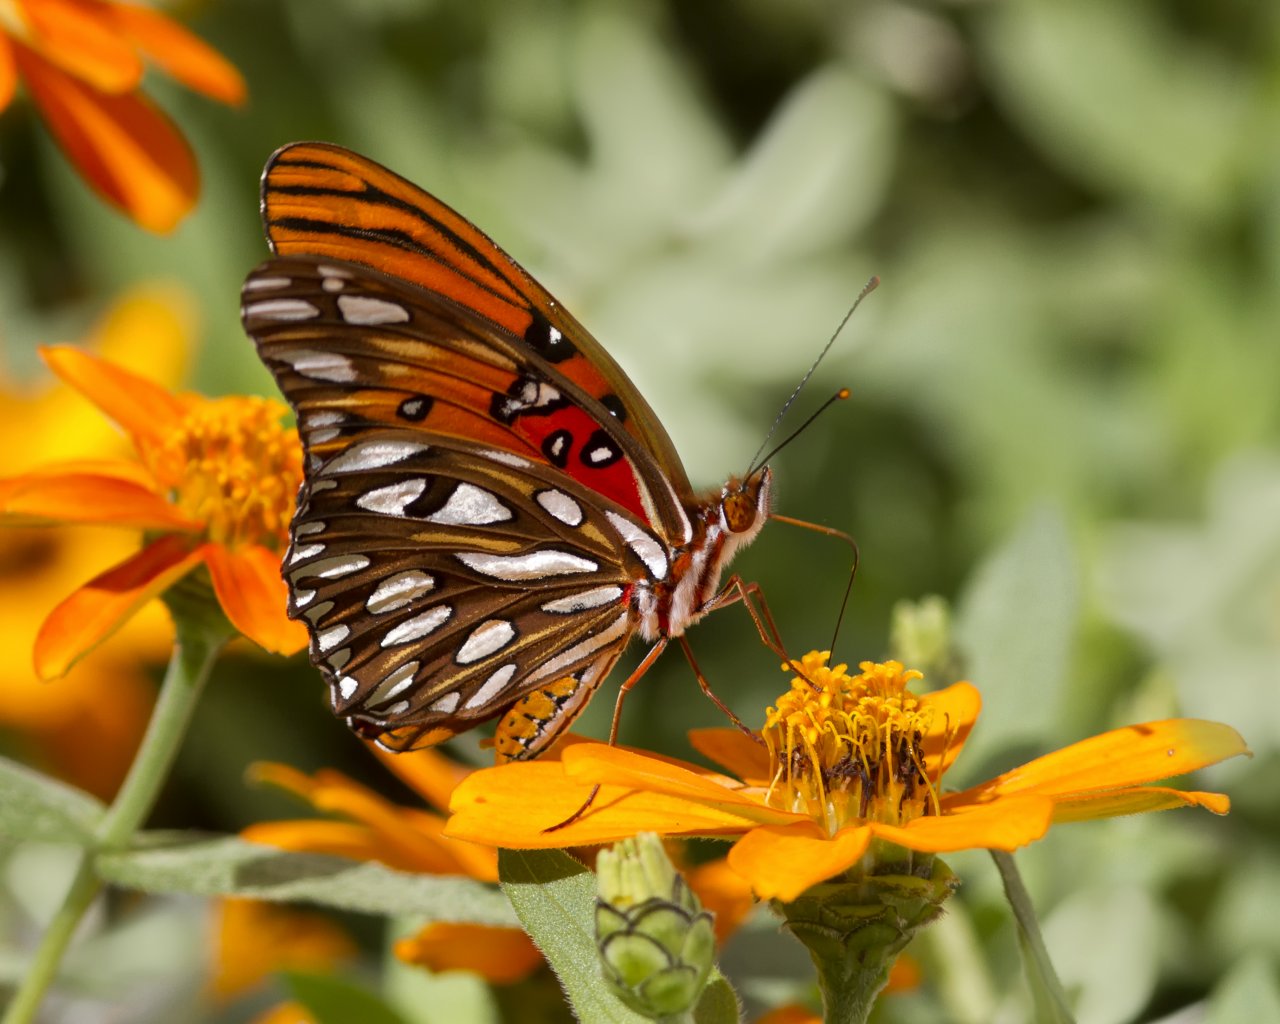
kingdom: Animalia
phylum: Arthropoda
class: Insecta
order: Lepidoptera
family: Nymphalidae
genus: Dione
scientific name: Dione vanillae
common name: Gulf Fritillary
